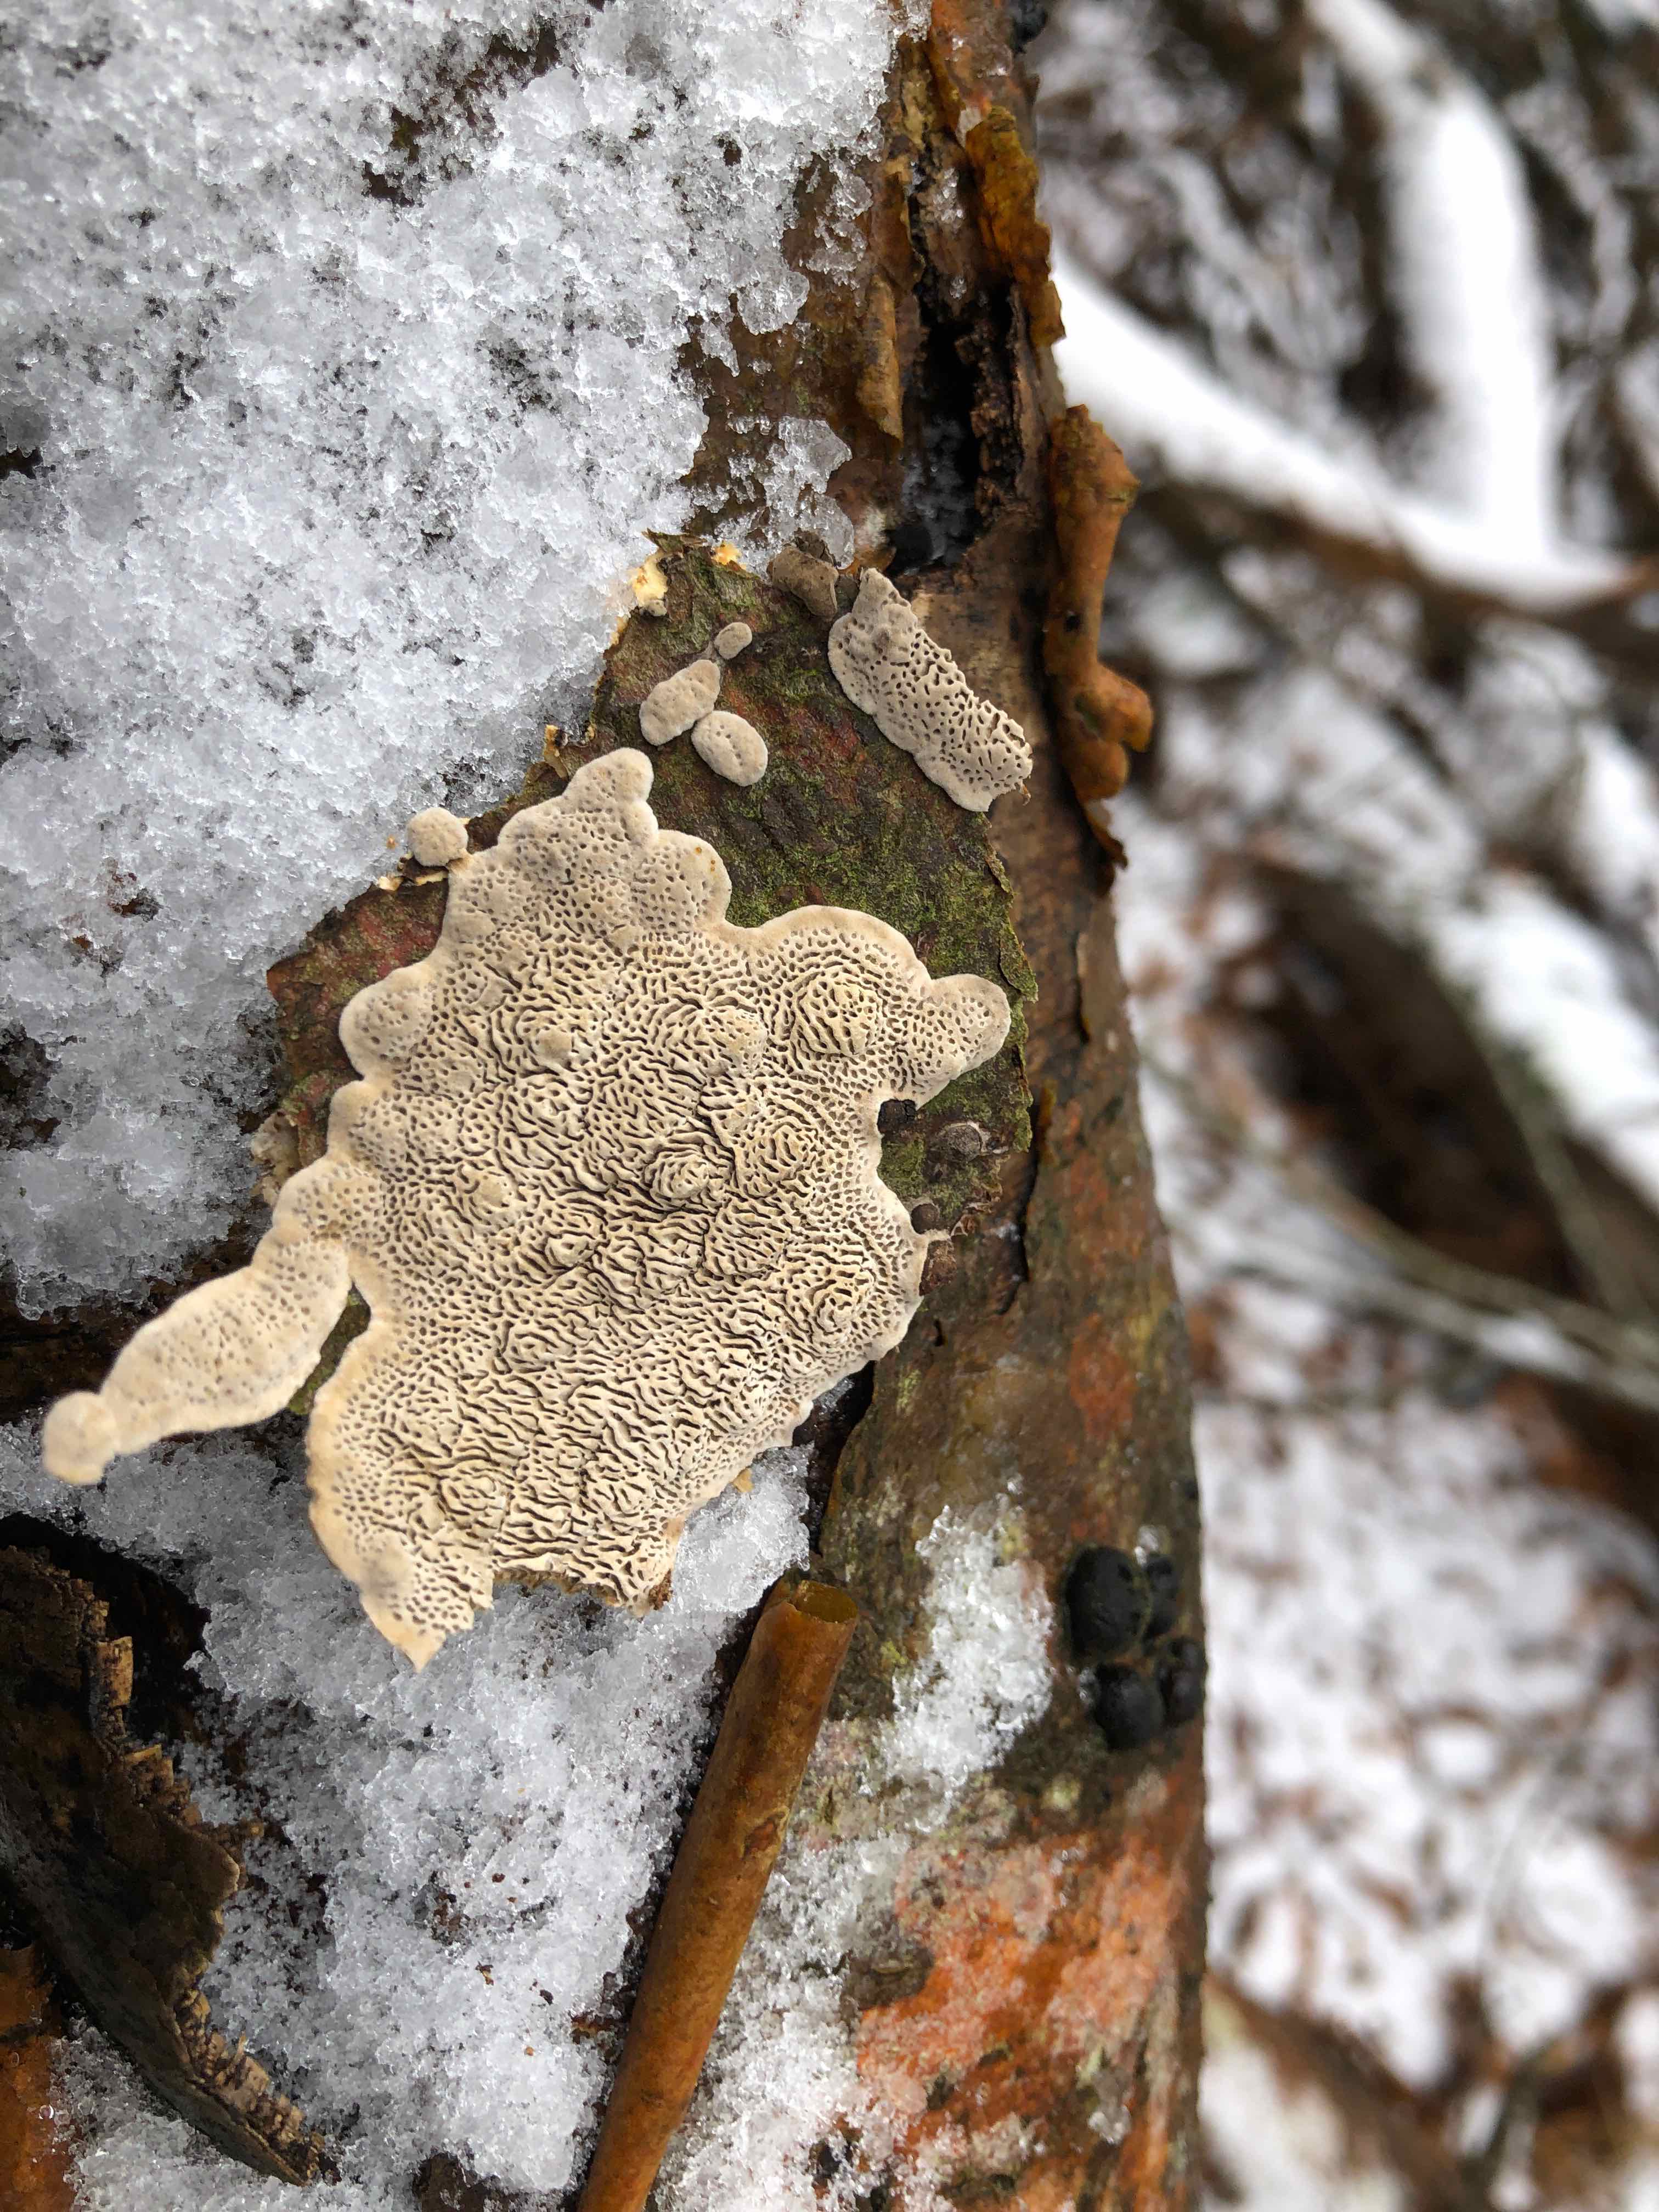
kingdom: Fungi
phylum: Basidiomycota
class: Agaricomycetes
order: Polyporales
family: Polyporaceae
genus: Podofomes
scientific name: Podofomes mollis
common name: blød begporesvamp
